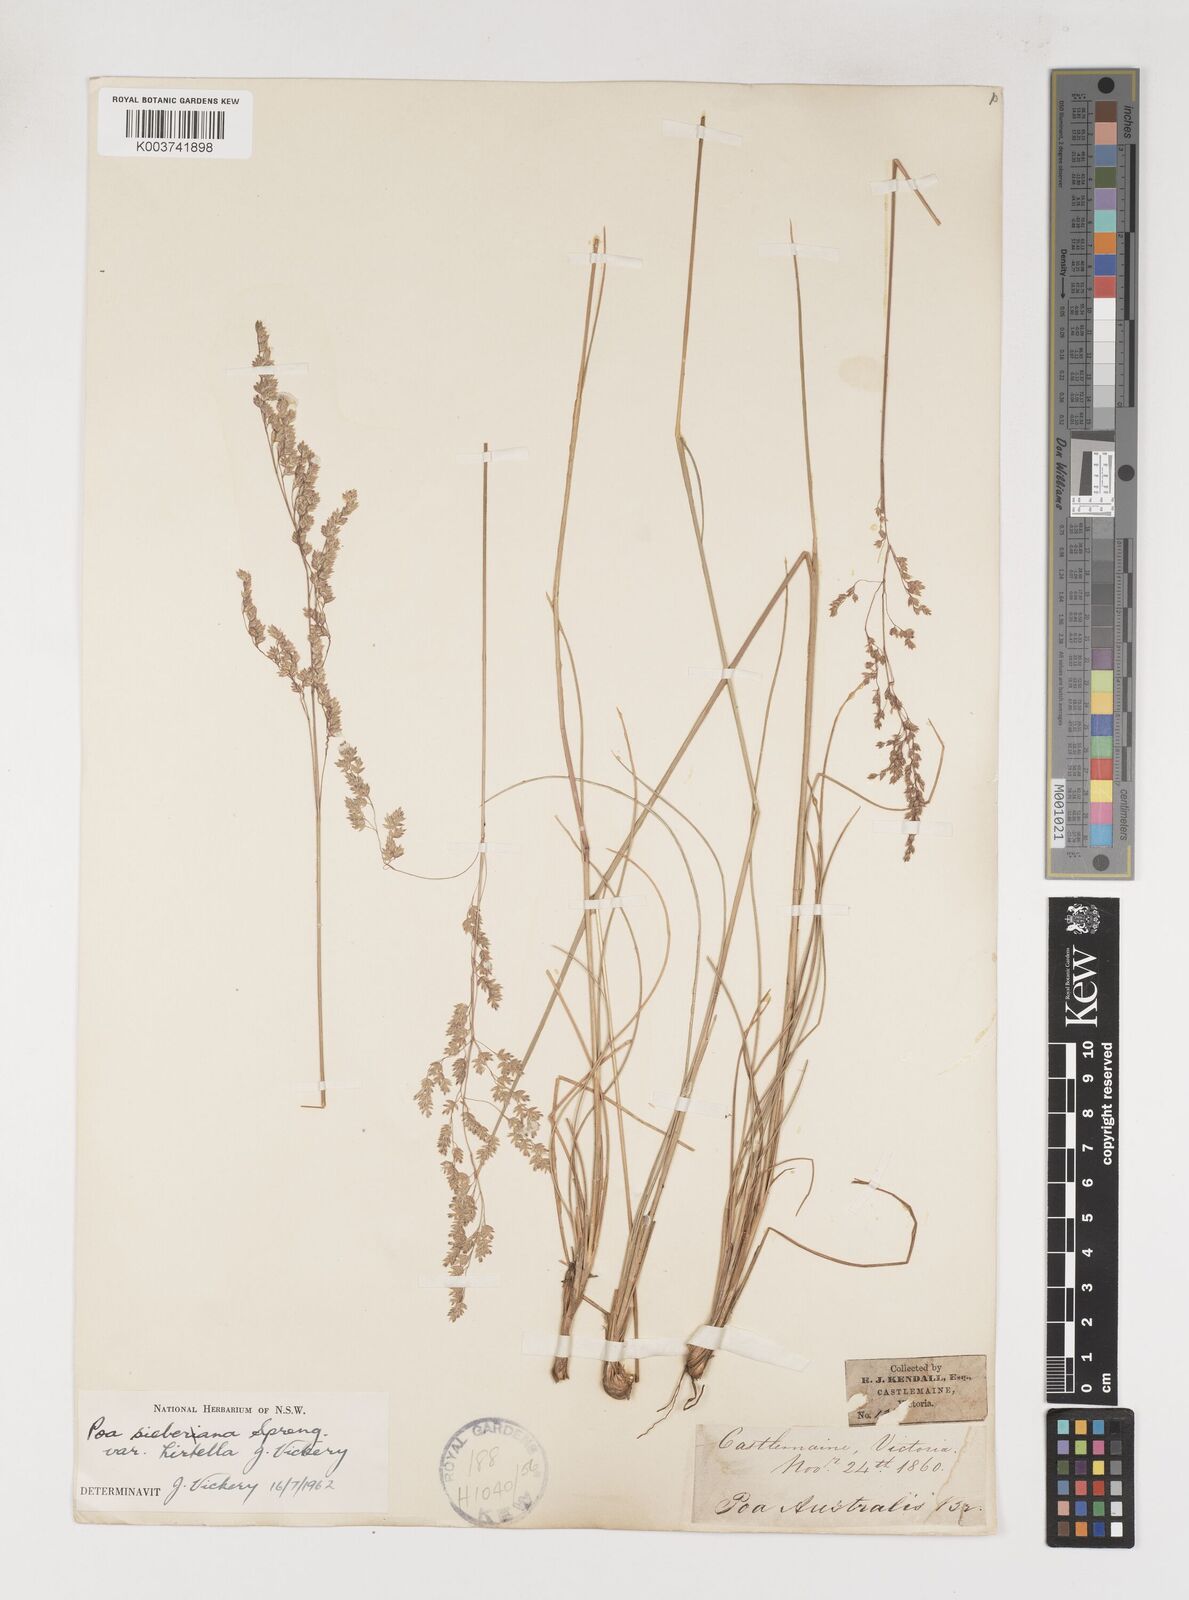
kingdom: Plantae
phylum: Tracheophyta
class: Liliopsida
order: Poales
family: Poaceae
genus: Poa
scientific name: Poa sieberiana
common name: Tussock poa
